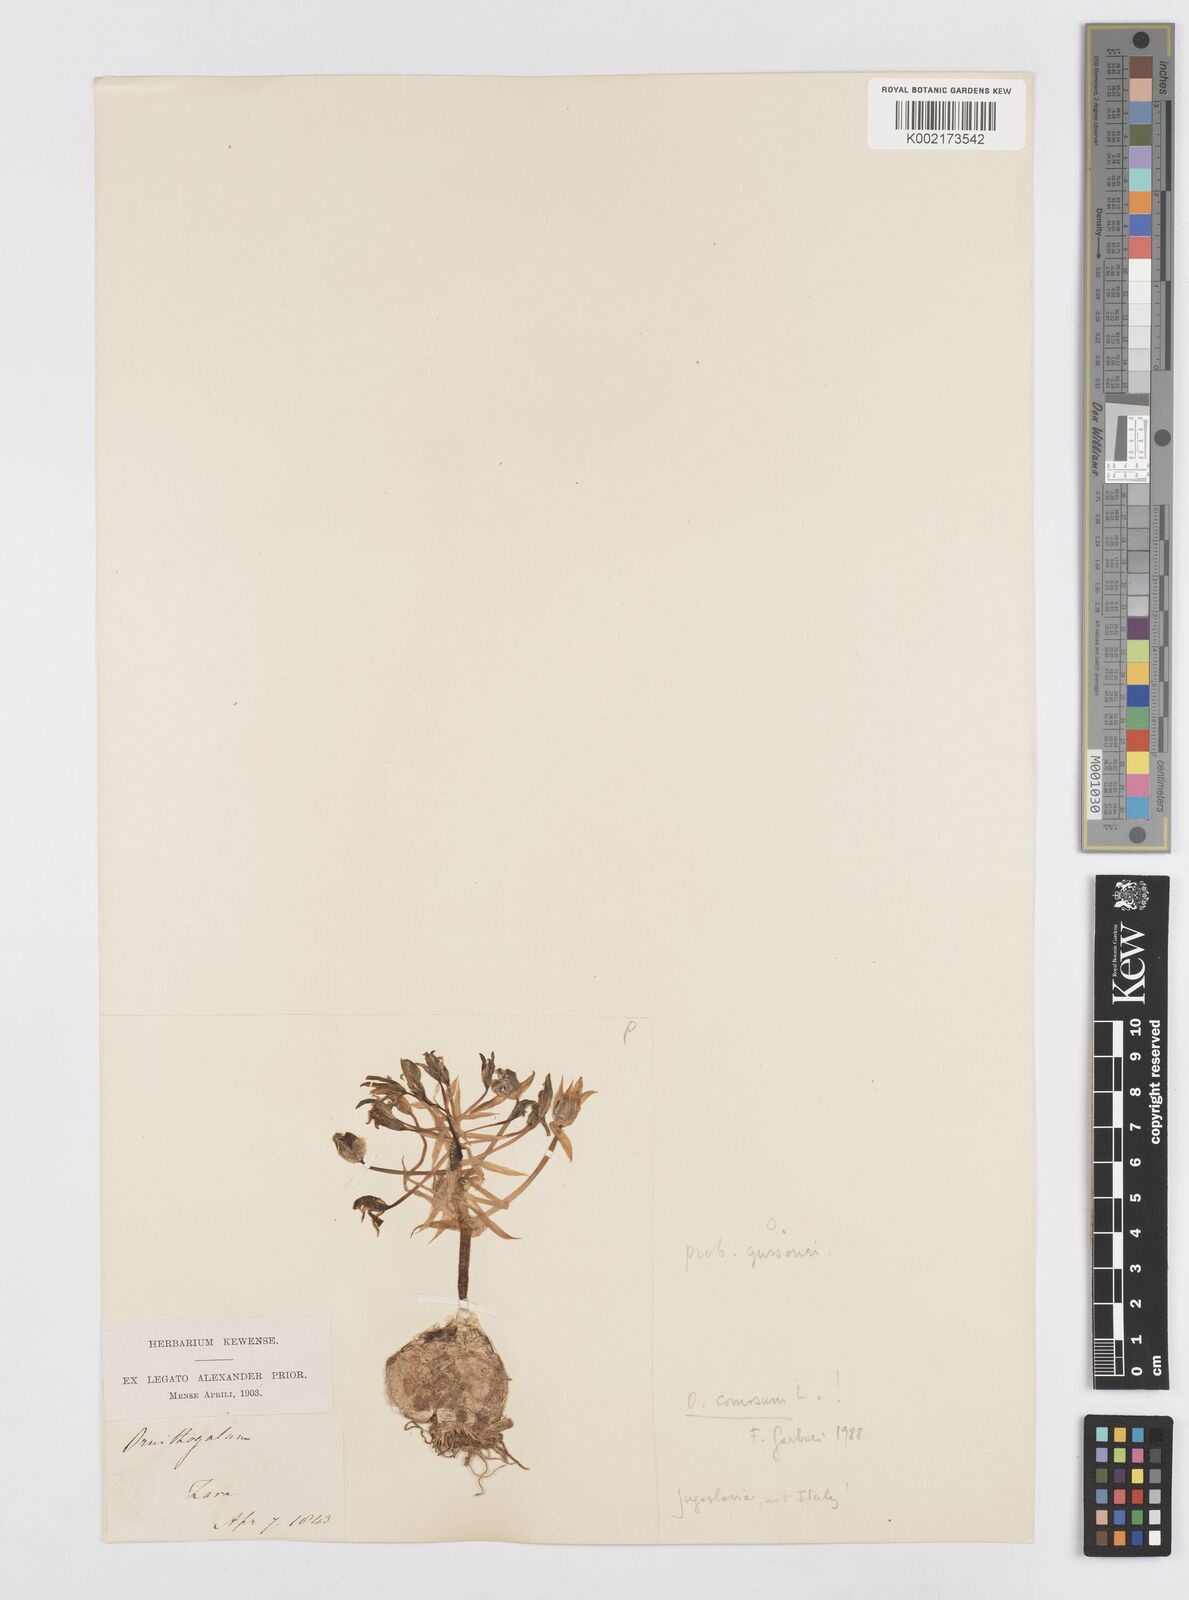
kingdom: Plantae
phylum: Tracheophyta
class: Liliopsida
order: Asparagales
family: Asparagaceae
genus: Ornithogalum
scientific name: Ornithogalum gussonei
